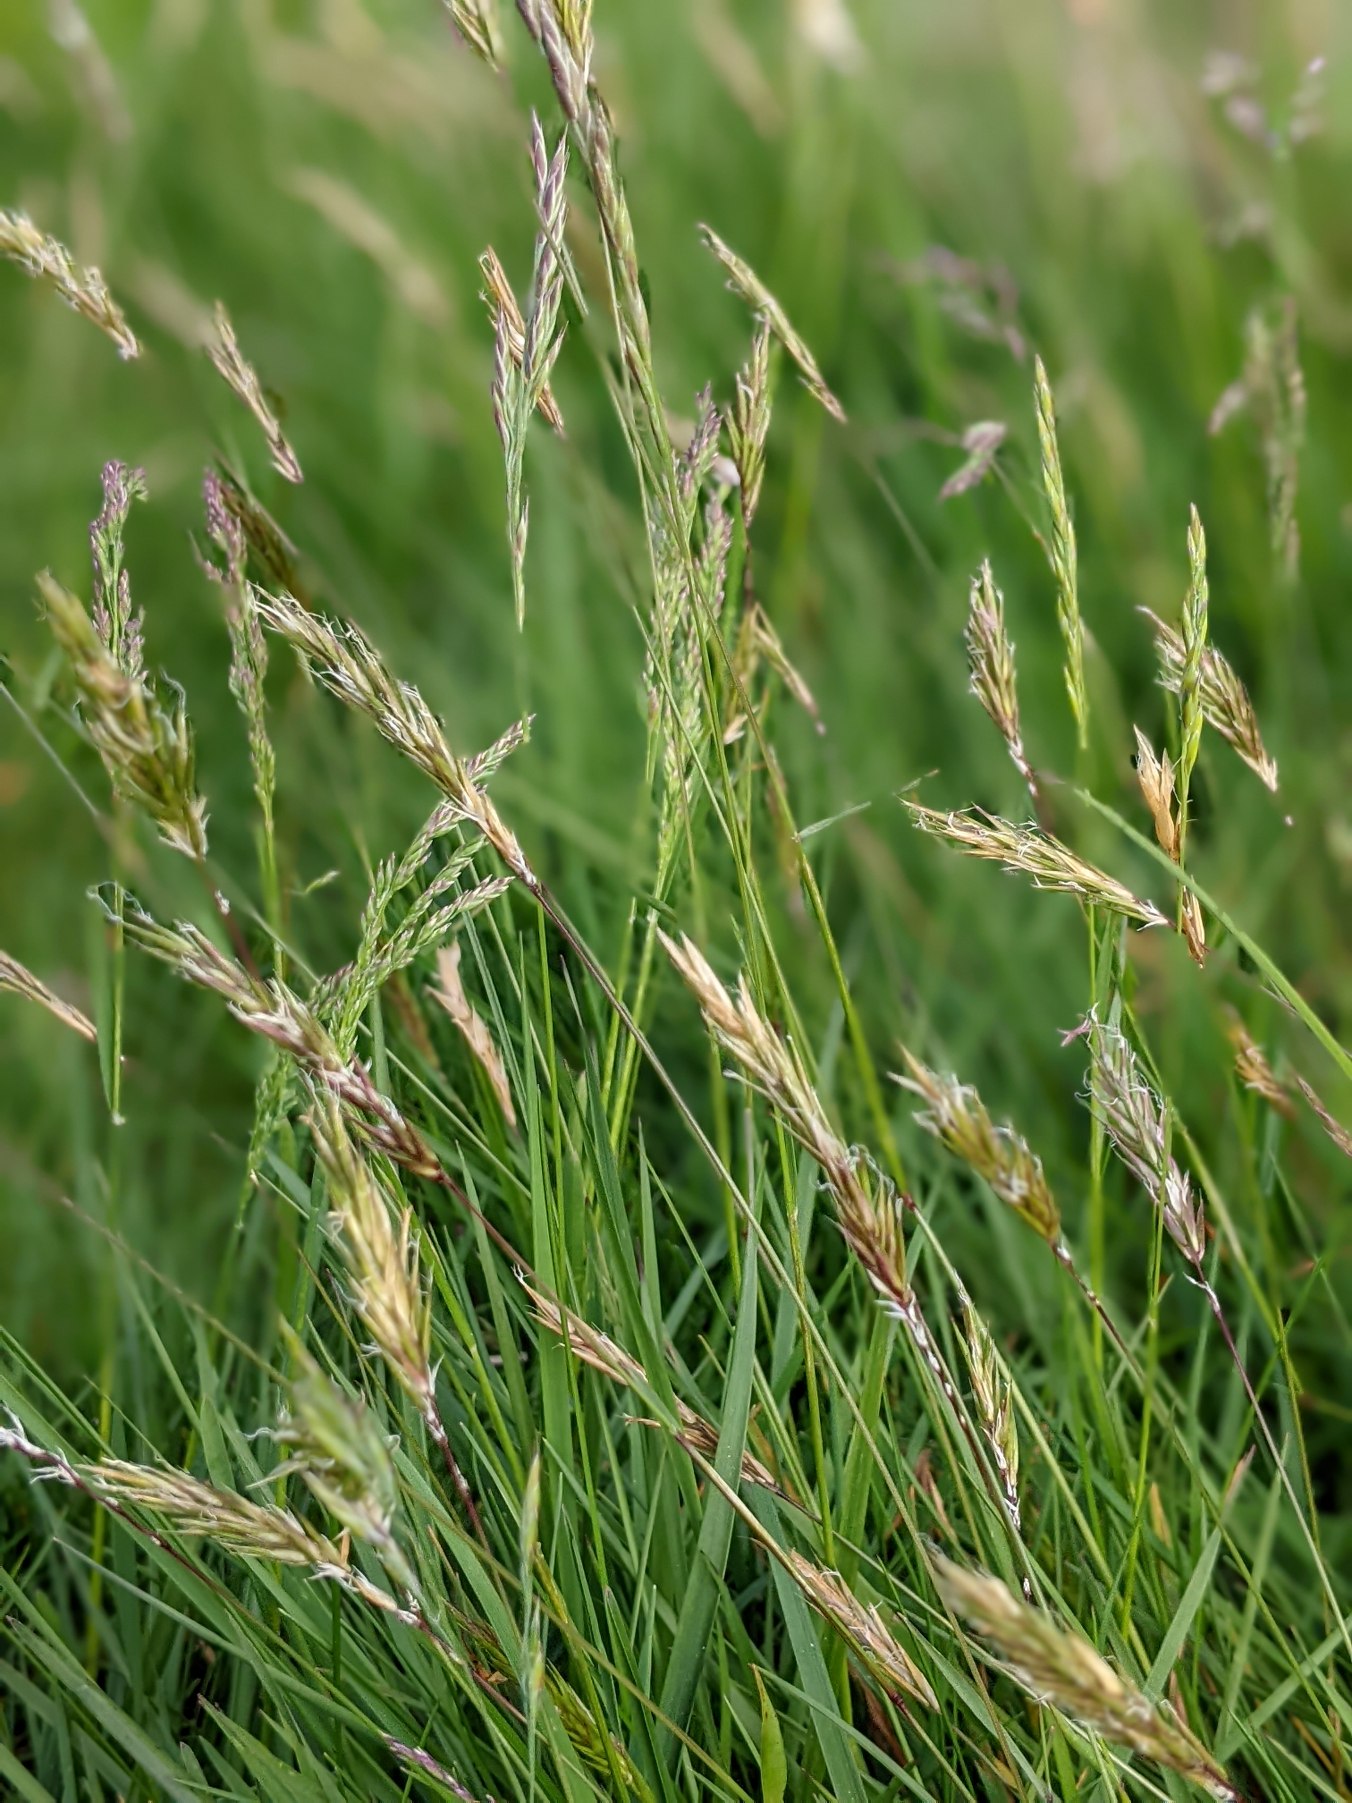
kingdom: Plantae
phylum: Tracheophyta
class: Liliopsida
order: Poales
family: Poaceae
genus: Anthoxanthum
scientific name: Anthoxanthum odoratum
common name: Vellugtende gulaks
